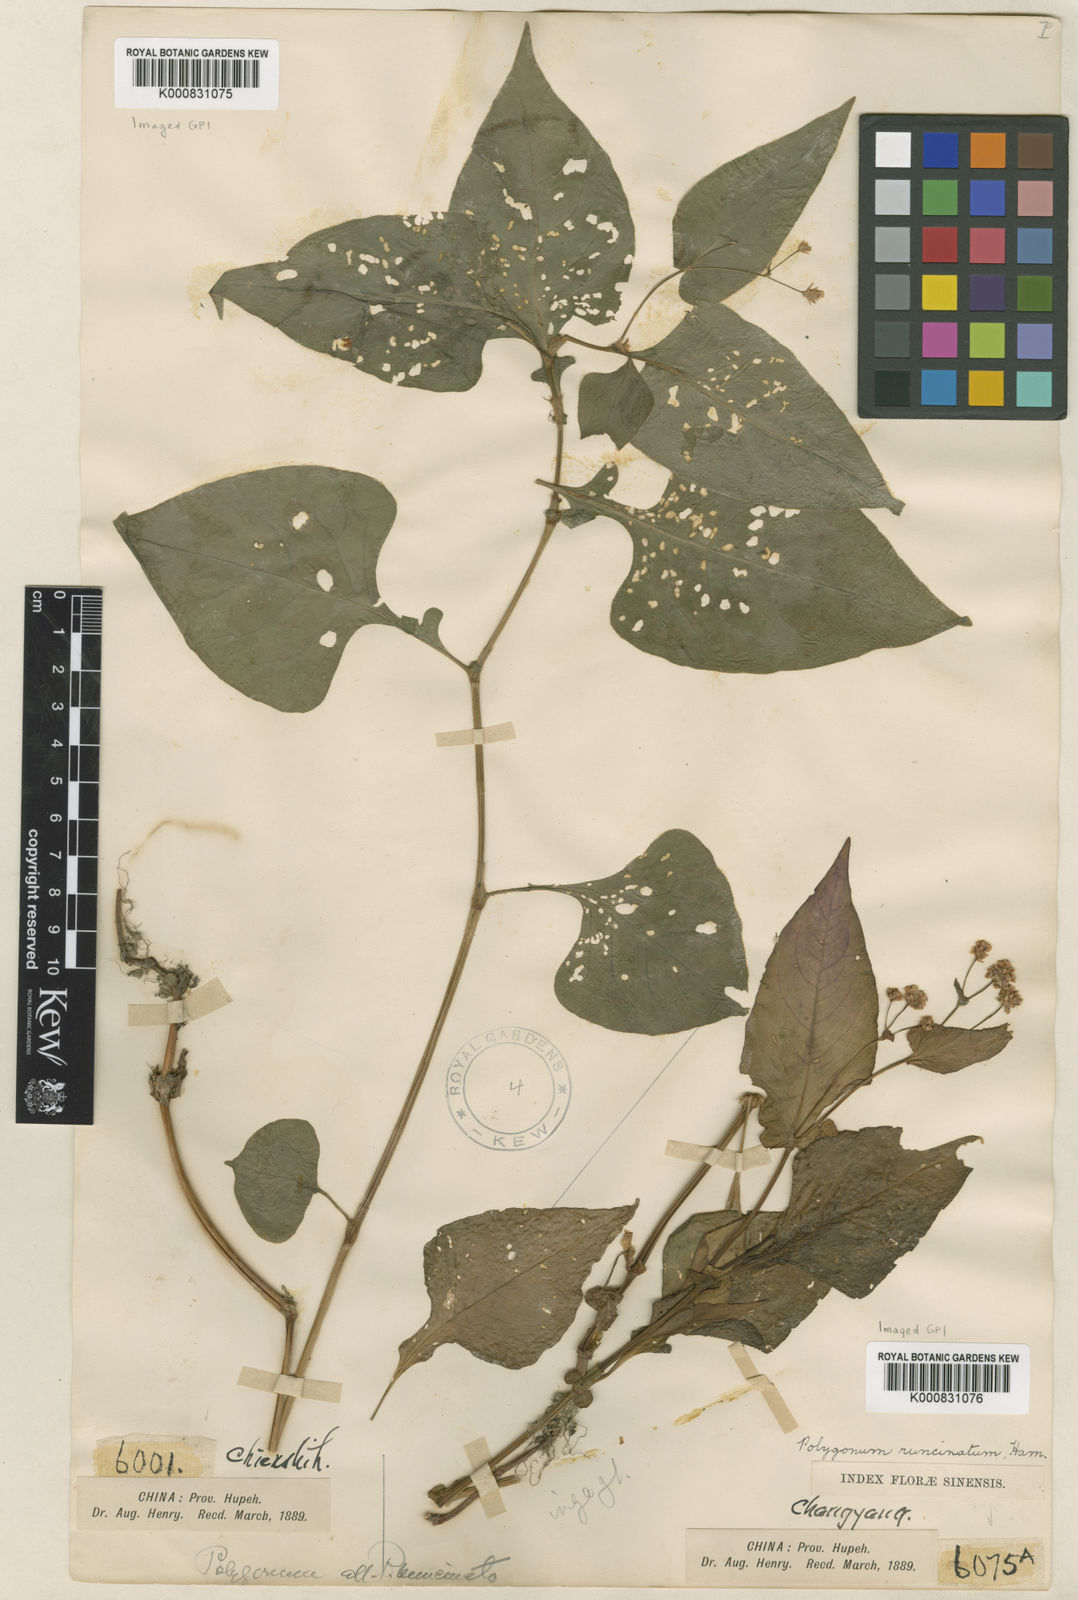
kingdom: Plantae
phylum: Tracheophyta
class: Magnoliopsida
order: Caryophyllales
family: Polygonaceae
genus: Persicaria
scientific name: Persicaria runcinata
